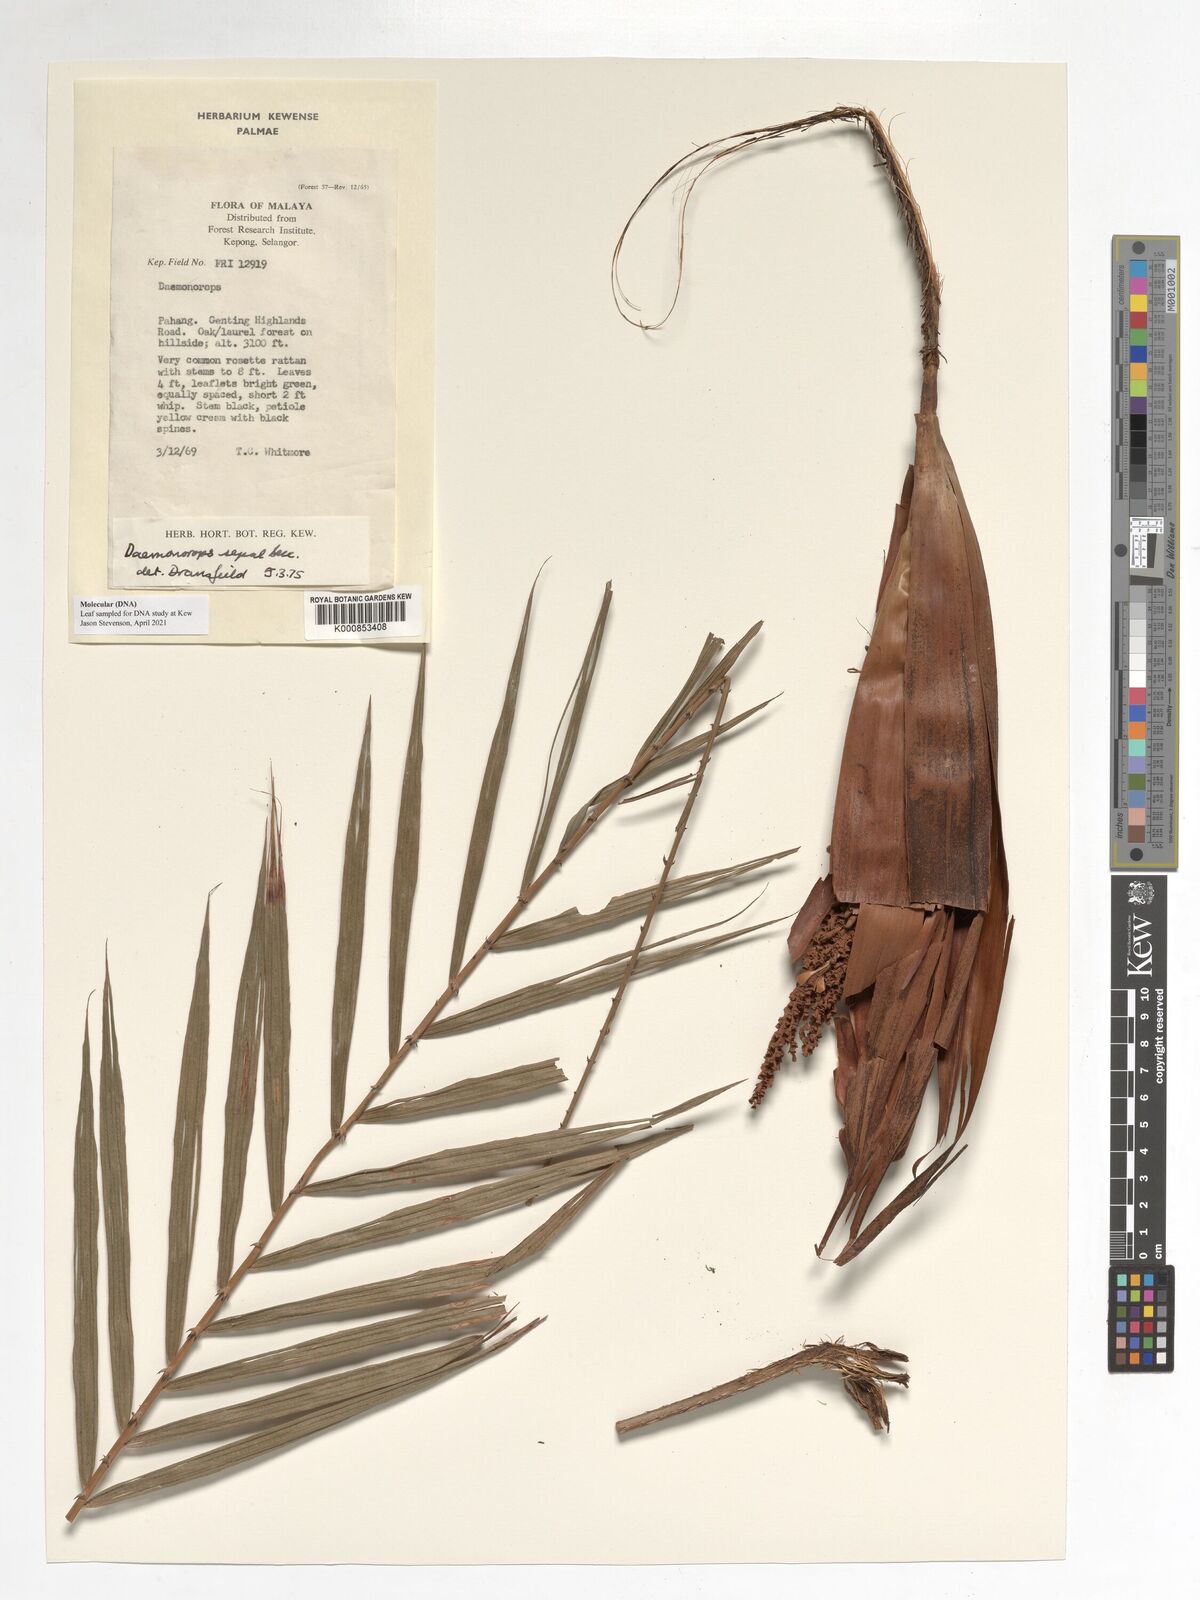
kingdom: Plantae
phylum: Tracheophyta
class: Liliopsida
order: Arecales
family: Arecaceae
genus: Calamus
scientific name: Calamus melanochaetes
